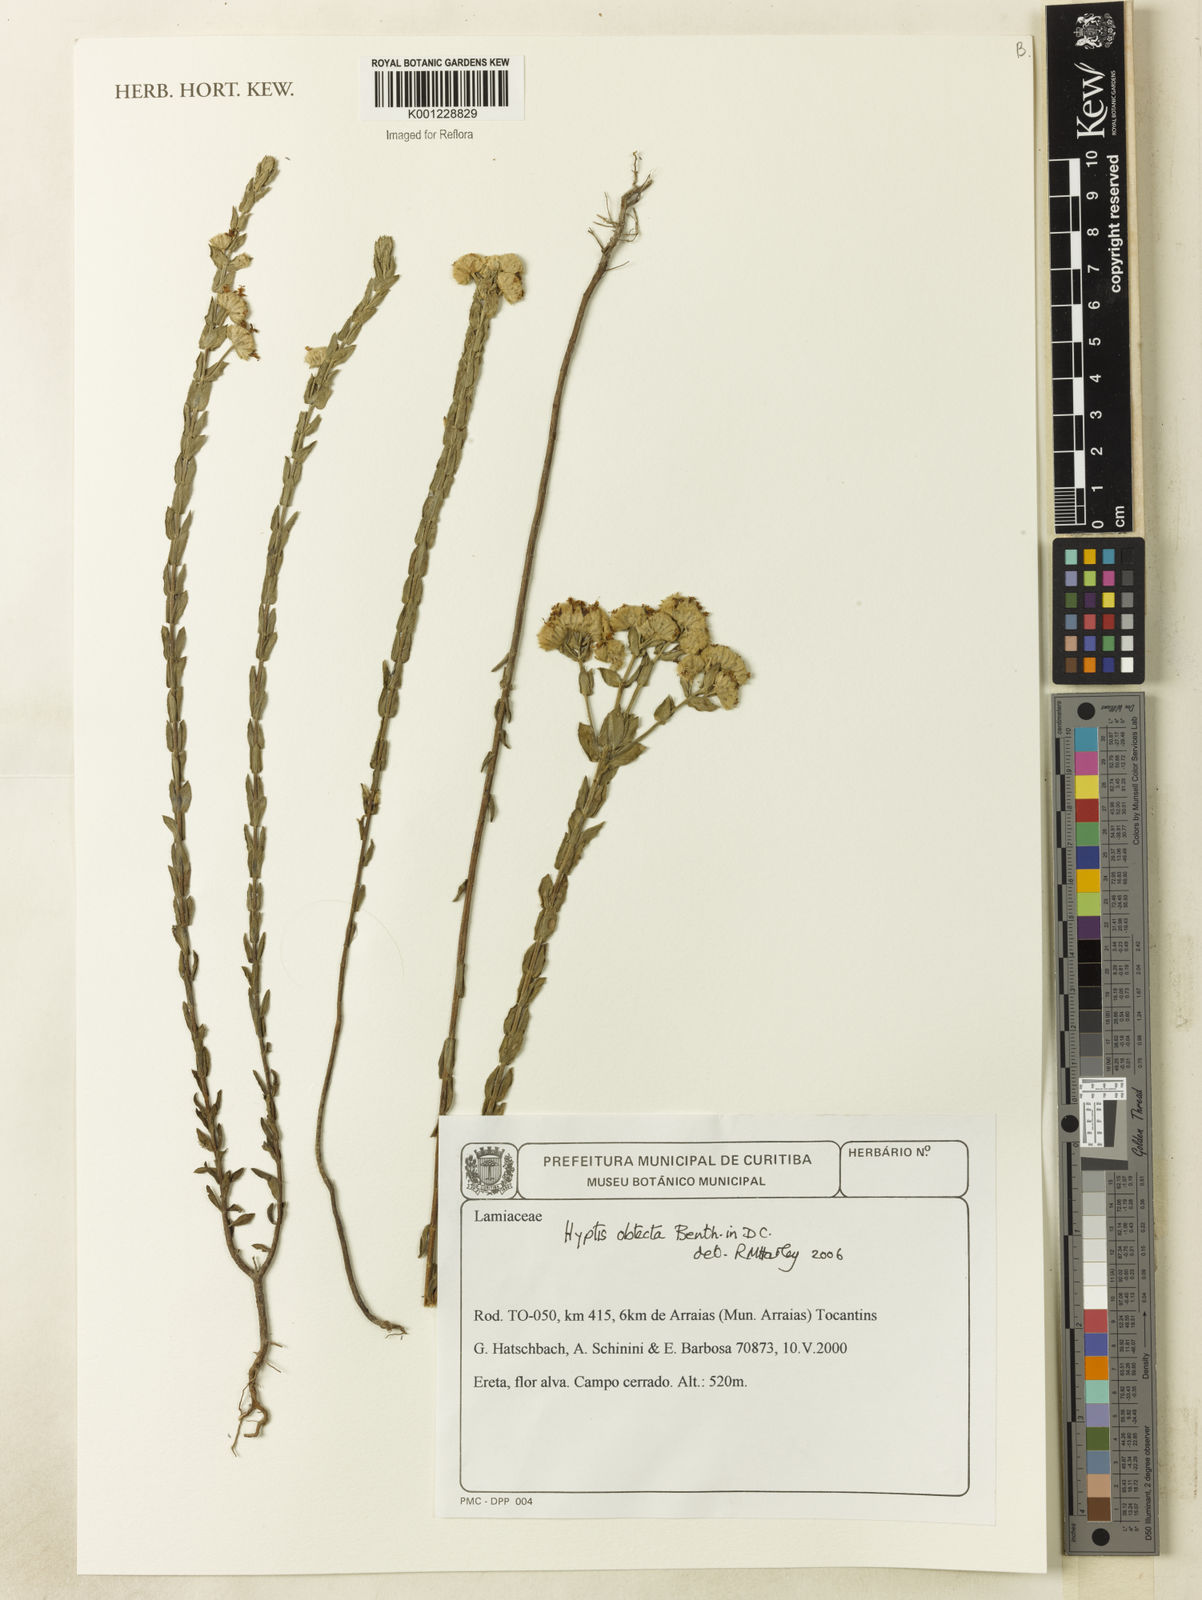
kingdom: Plantae
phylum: Tracheophyta
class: Magnoliopsida
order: Lamiales
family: Lamiaceae
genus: Hyptis
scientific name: Hyptis obtecta
